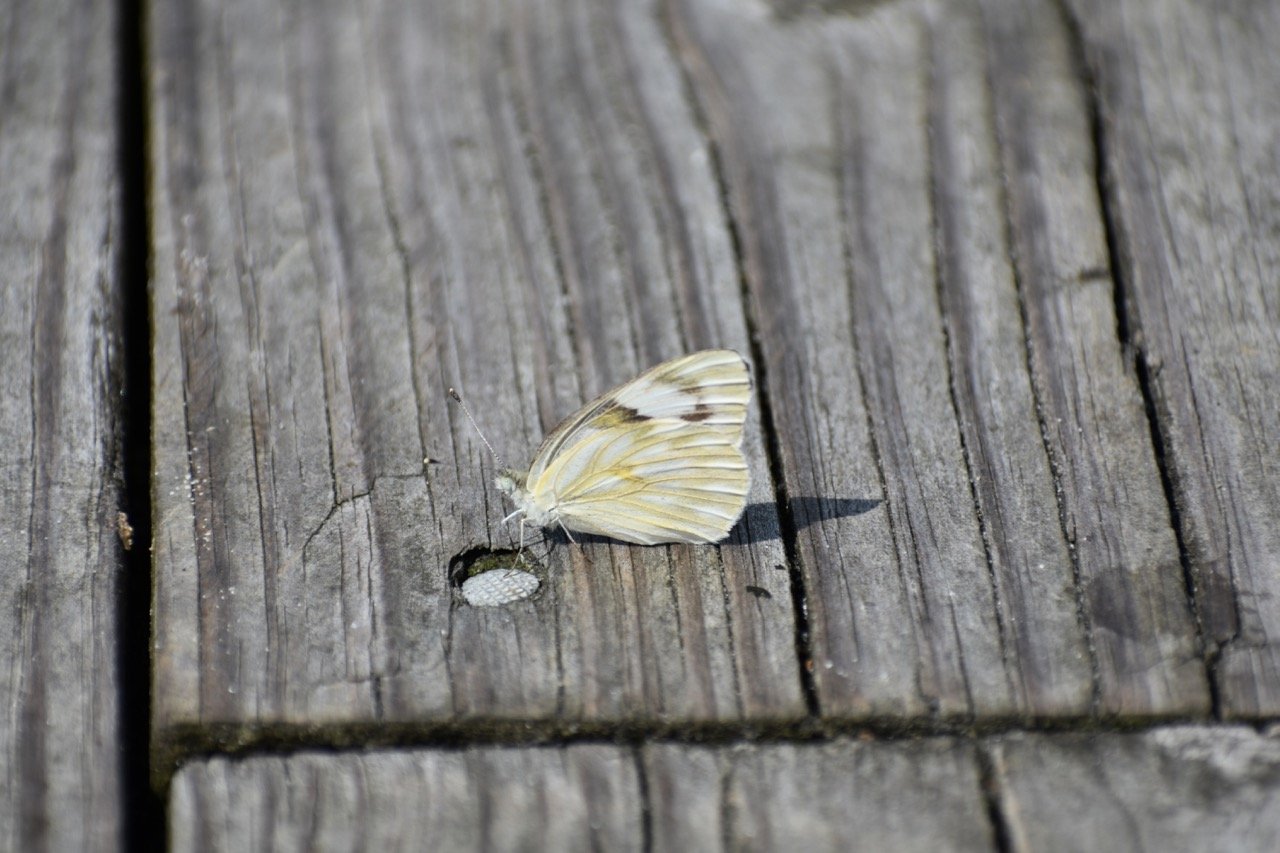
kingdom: Animalia
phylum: Arthropoda
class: Insecta
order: Lepidoptera
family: Pieridae
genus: Pontia
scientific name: Pontia protodice
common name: Checkered White
